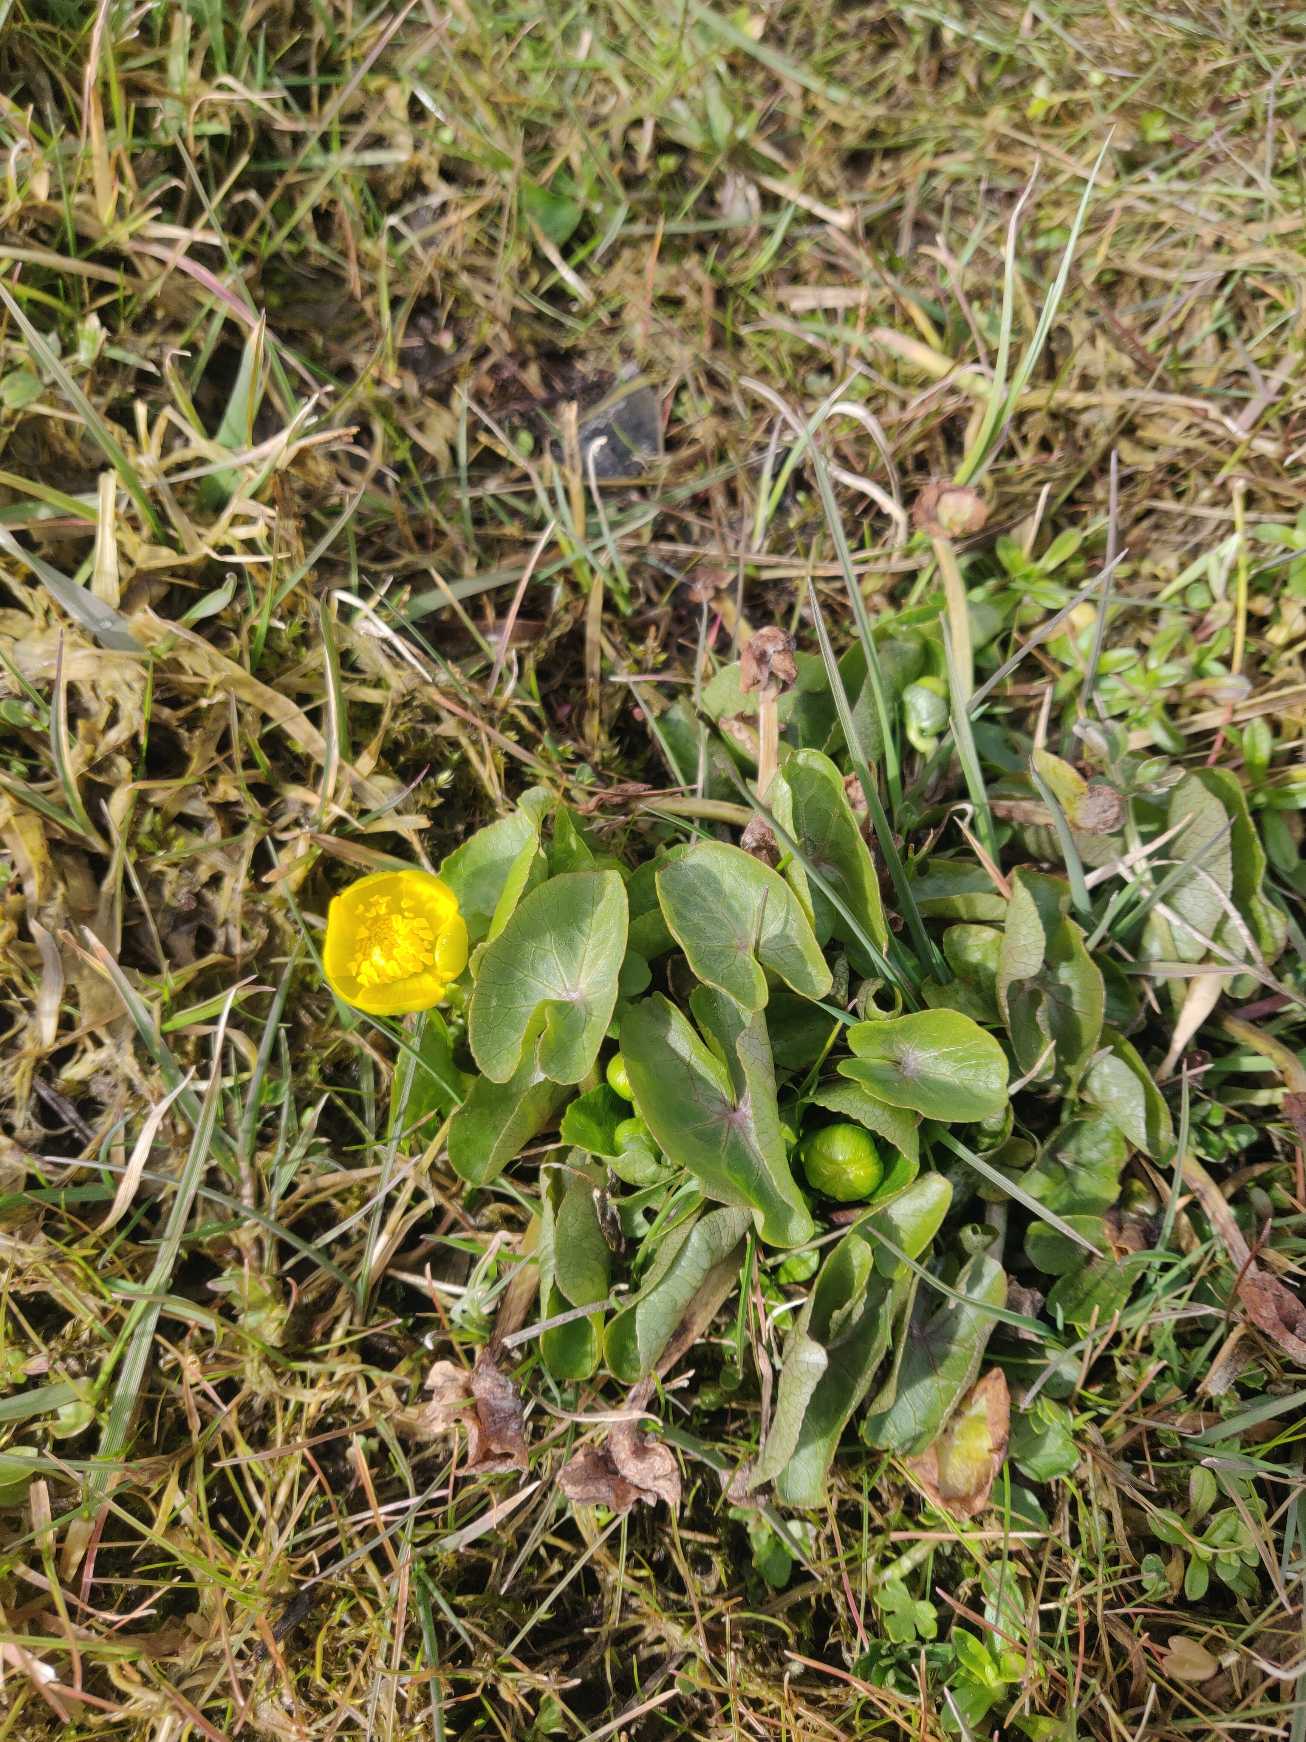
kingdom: Plantae
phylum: Tracheophyta
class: Magnoliopsida
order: Ranunculales
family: Ranunculaceae
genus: Caltha
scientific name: Caltha palustris
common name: Eng-kabbeleje
